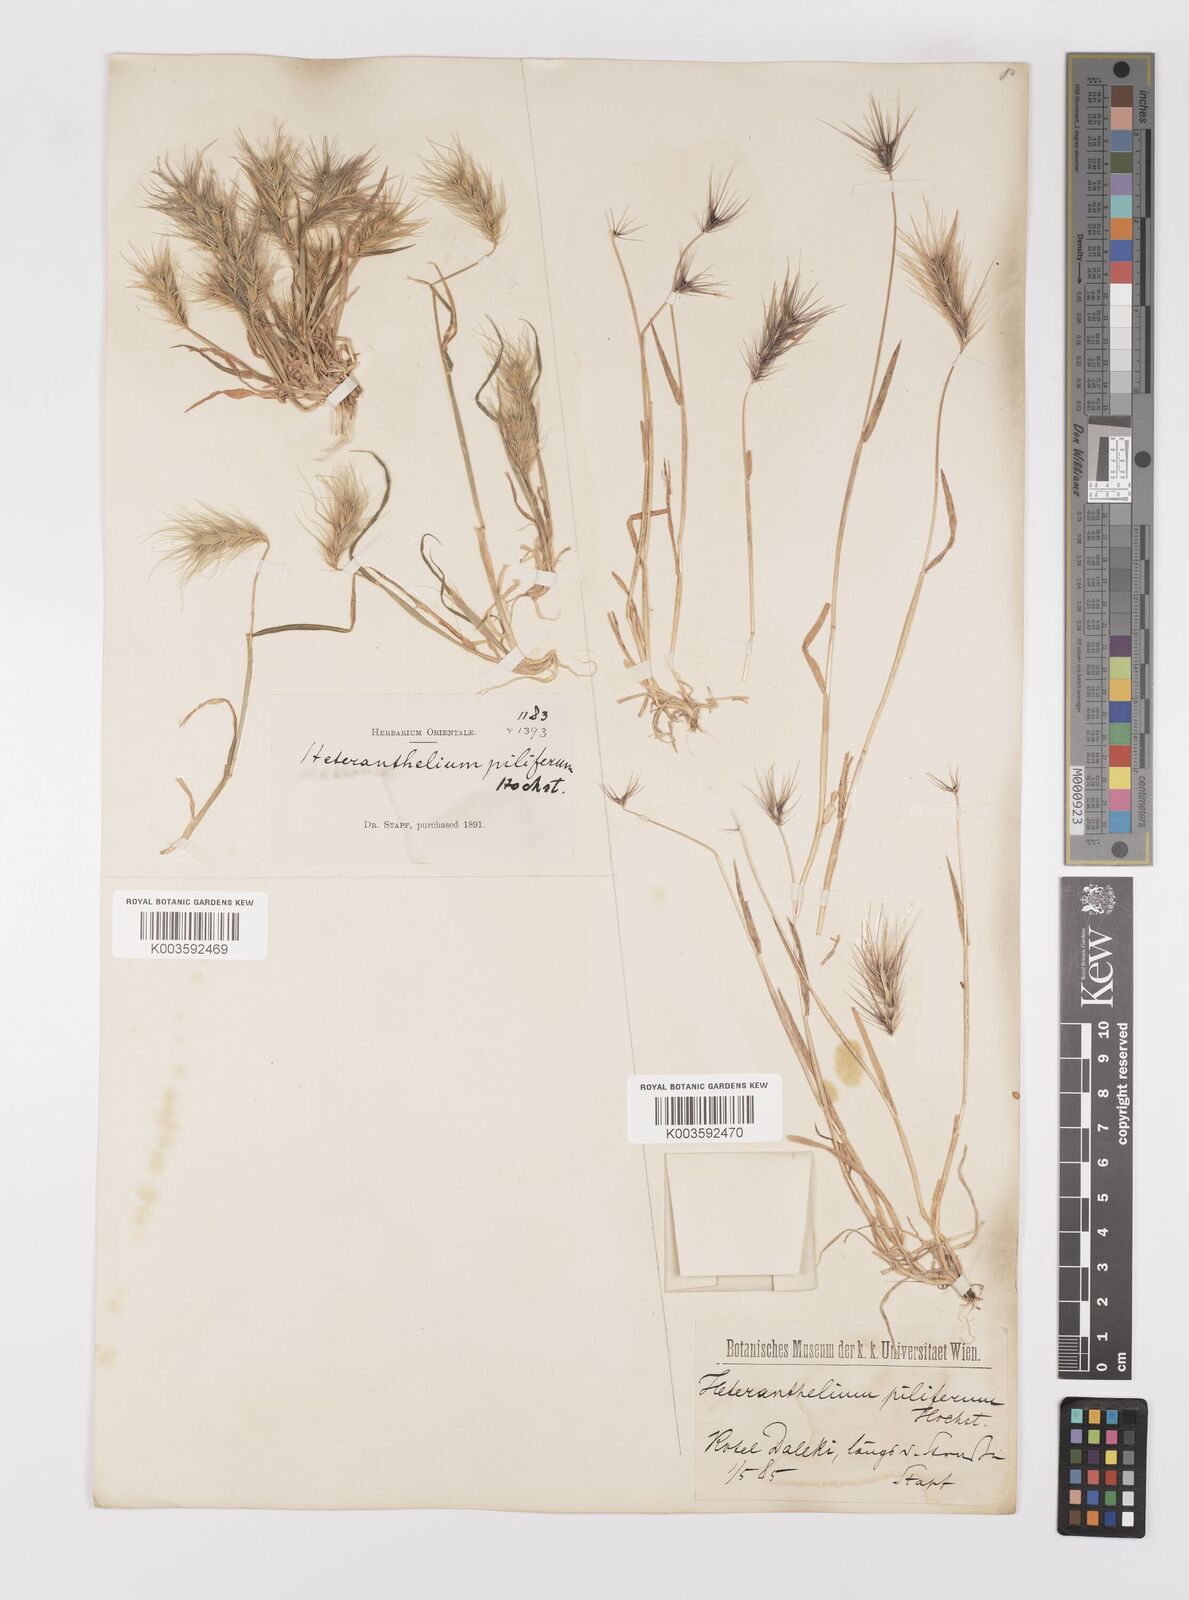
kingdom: Plantae
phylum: Tracheophyta
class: Liliopsida
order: Poales
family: Poaceae
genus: Heteranthelium
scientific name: Heteranthelium piliferum
